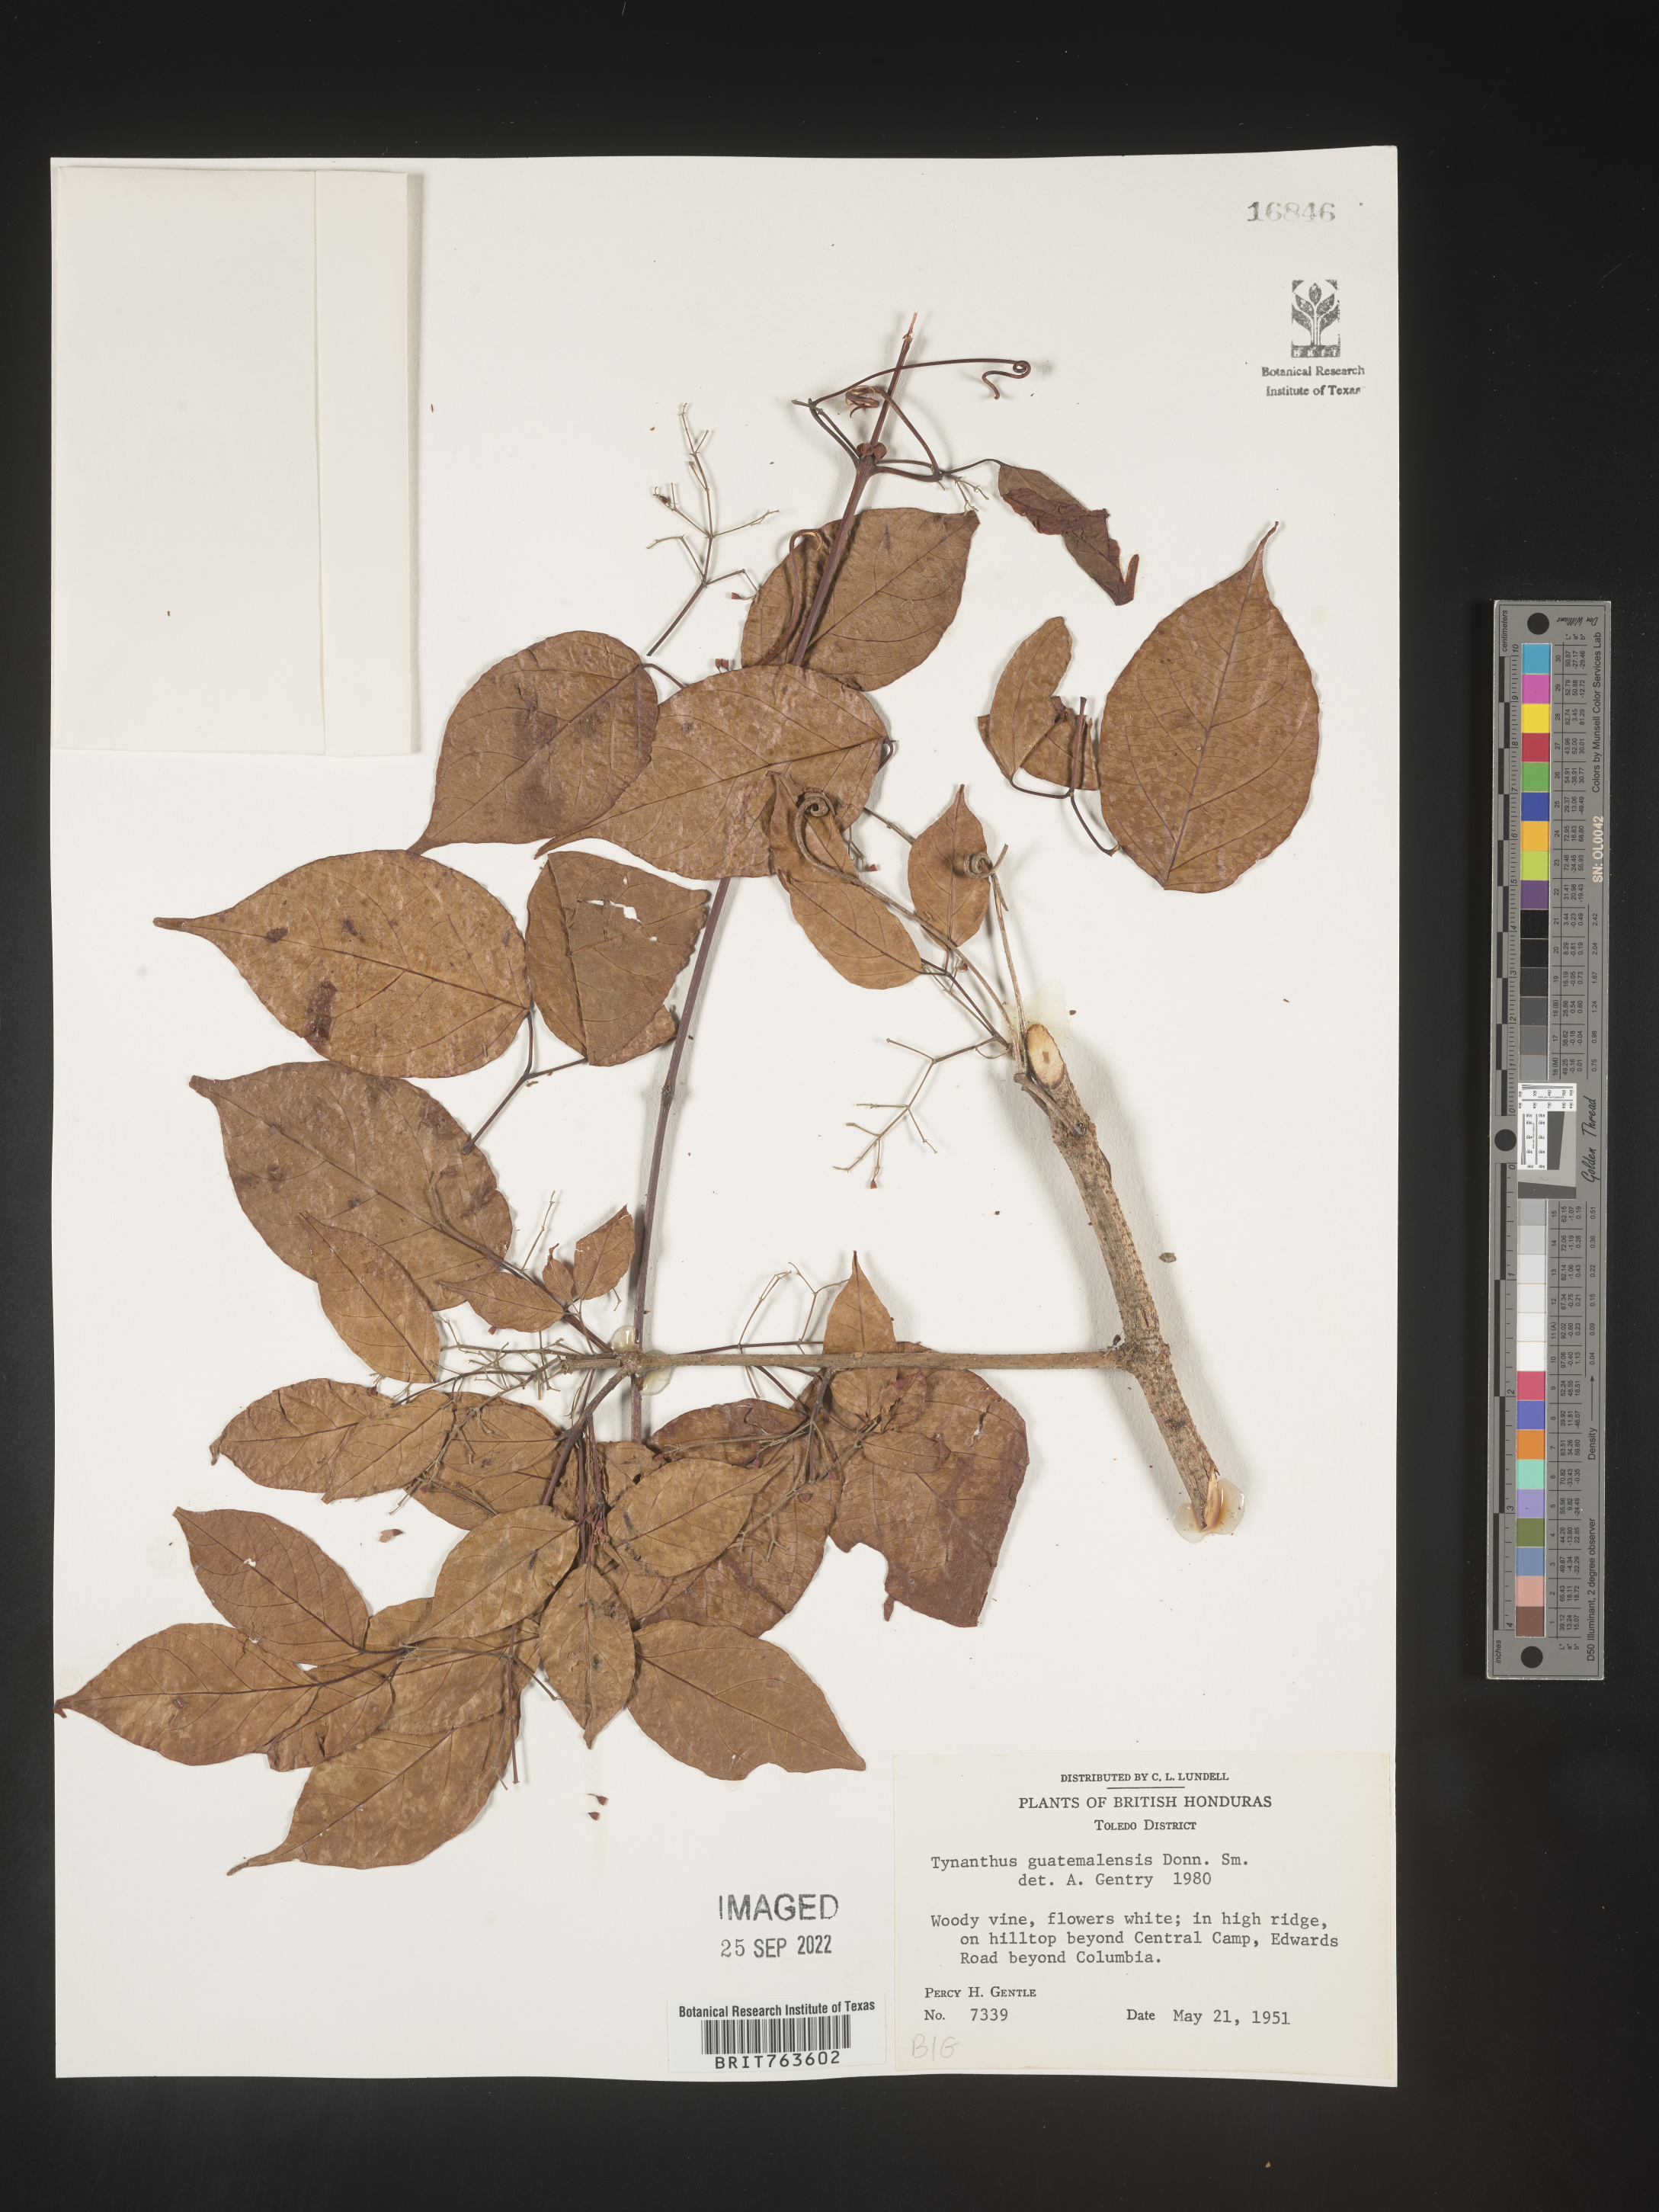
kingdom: Plantae
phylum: Tracheophyta
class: Magnoliopsida
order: Lamiales
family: Bignoniaceae
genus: Tynanthus
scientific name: Tynanthus
